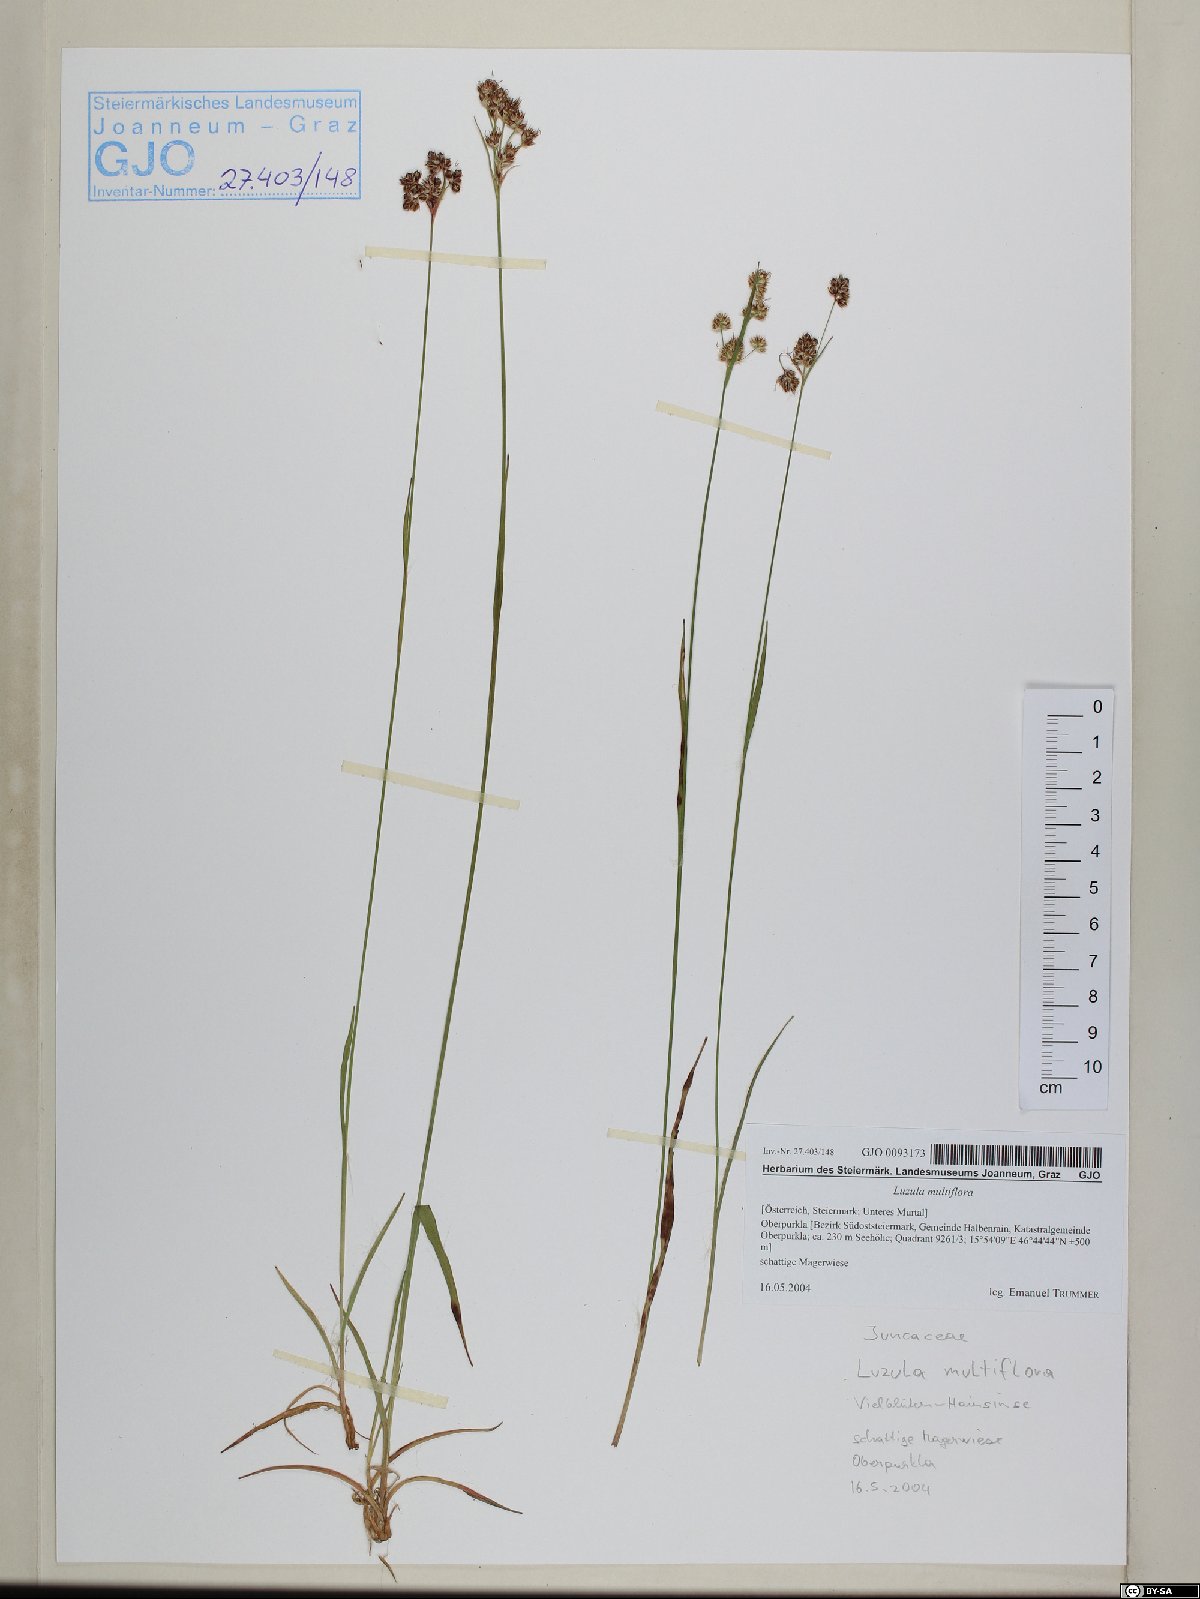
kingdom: Plantae
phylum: Tracheophyta
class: Liliopsida
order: Poales
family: Juncaceae
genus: Luzula
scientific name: Luzula multiflora
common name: Heath wood-rush
